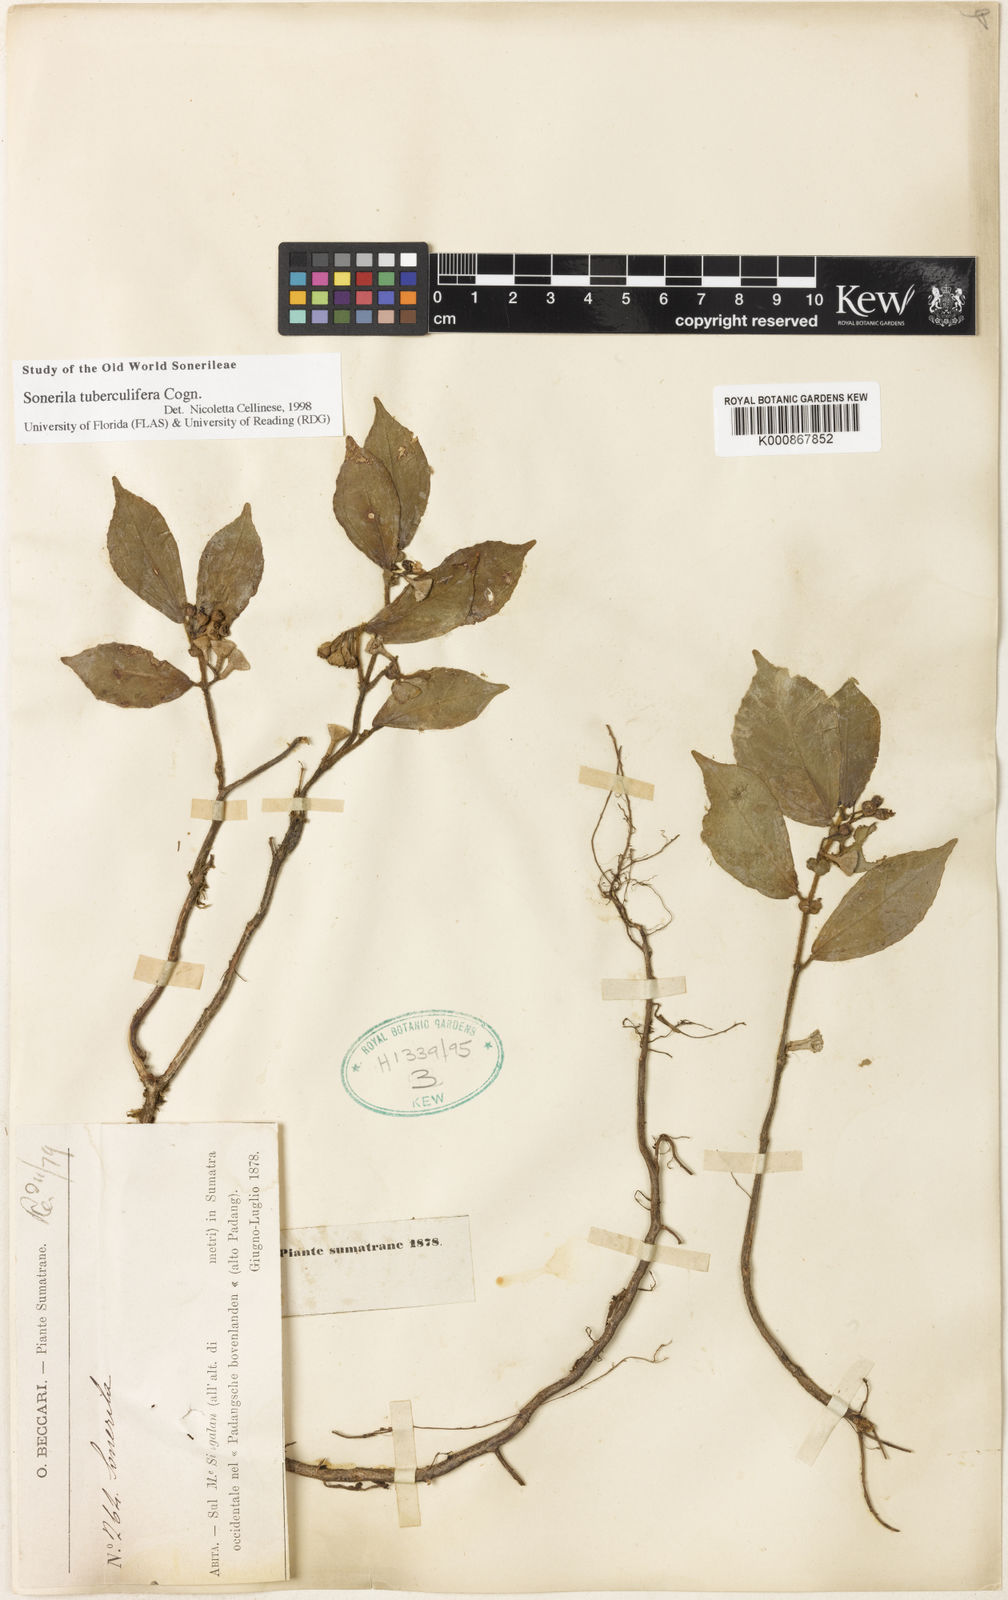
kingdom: Plantae
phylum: Tracheophyta
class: Magnoliopsida
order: Myrtales
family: Melastomataceae
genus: Sonerila
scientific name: Sonerila tuberculifera
